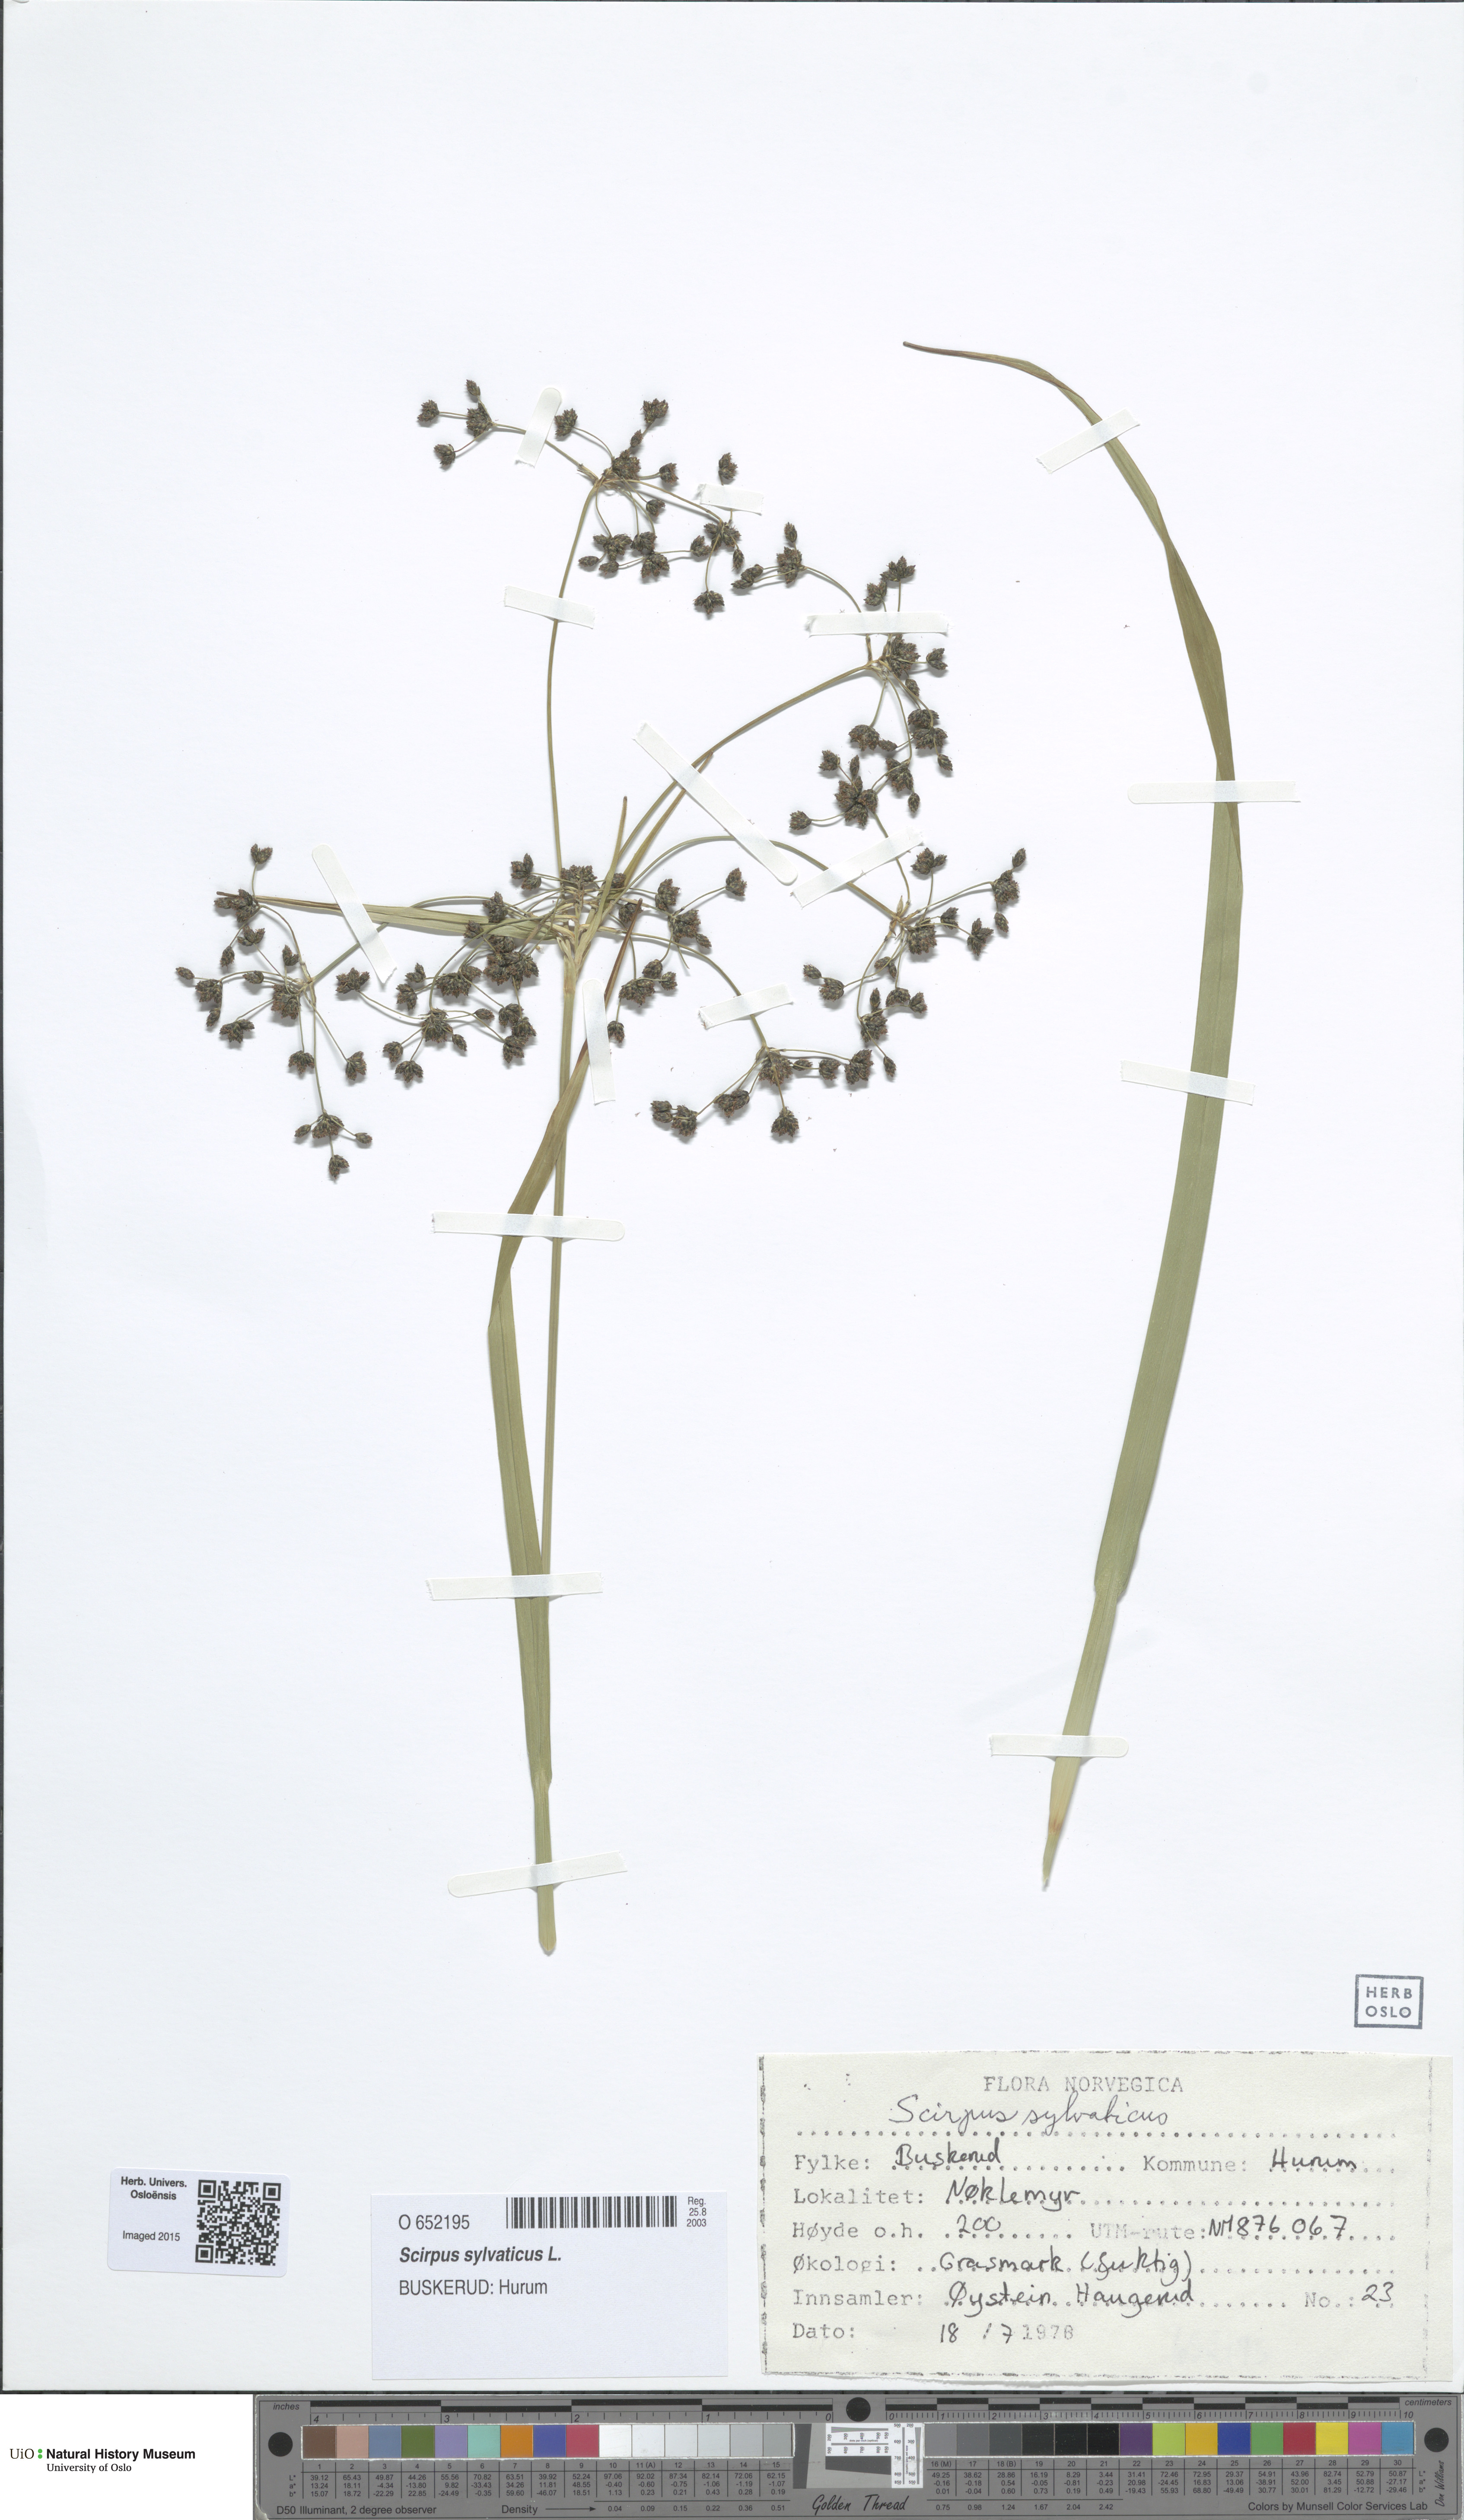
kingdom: Plantae
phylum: Tracheophyta
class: Liliopsida
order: Poales
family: Cyperaceae
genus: Scirpus
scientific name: Scirpus sylvaticus
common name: Wood club-rush
